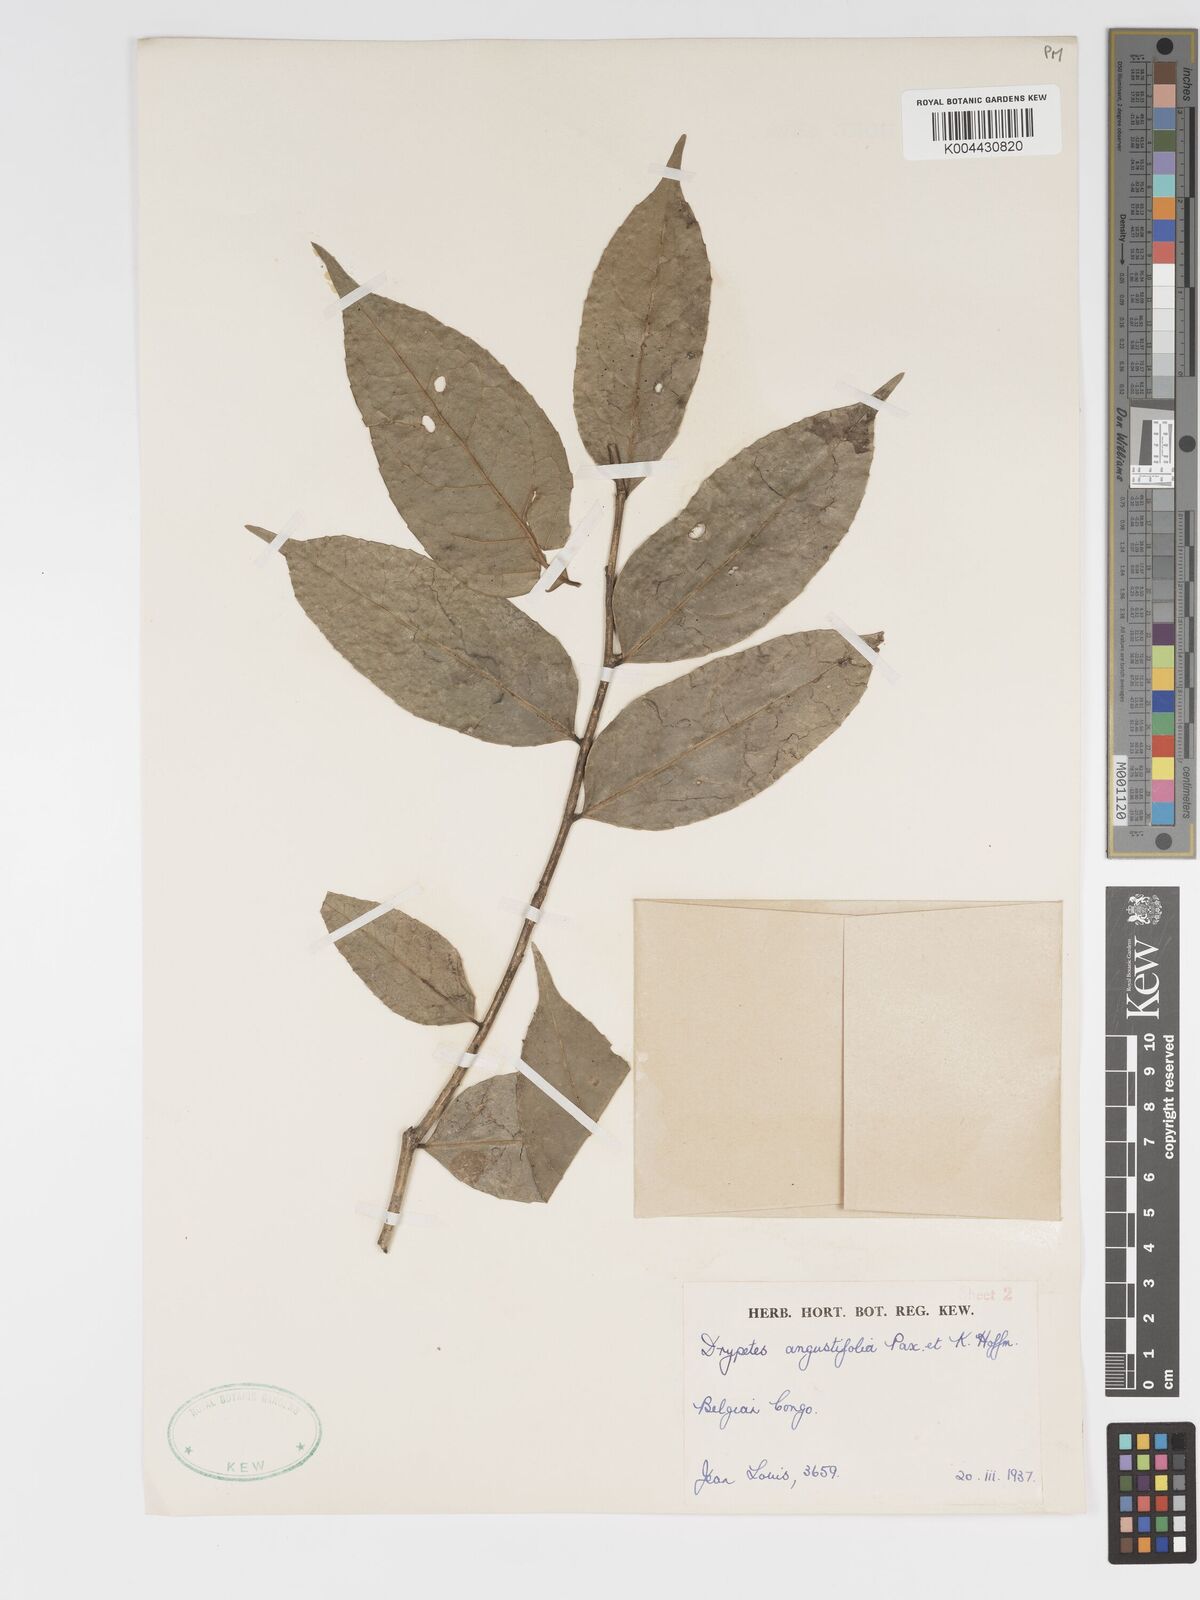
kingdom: Plantae
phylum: Tracheophyta
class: Magnoliopsida
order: Malpighiales
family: Putranjivaceae
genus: Drypetes
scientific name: Drypetes angustifolia
